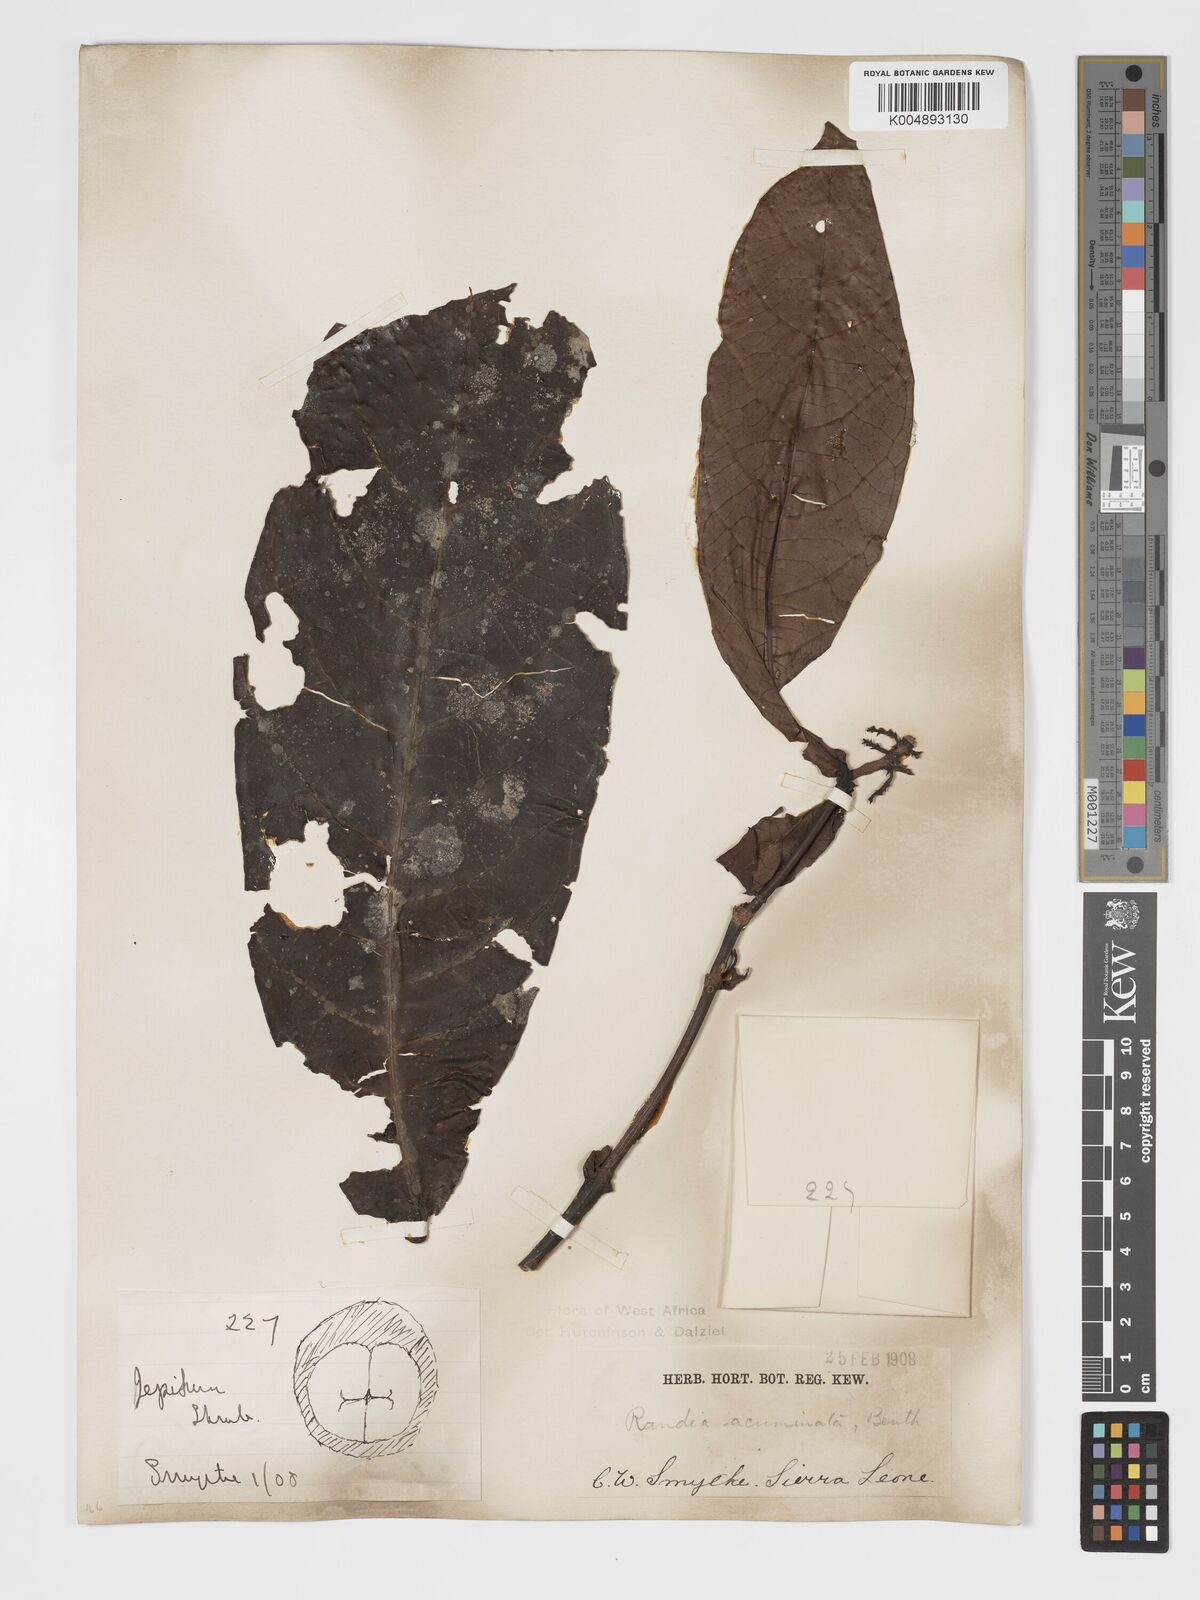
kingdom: Plantae
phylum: Tracheophyta
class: Magnoliopsida
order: Gentianales
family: Rubiaceae
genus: Massularia
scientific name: Massularia acuminata
